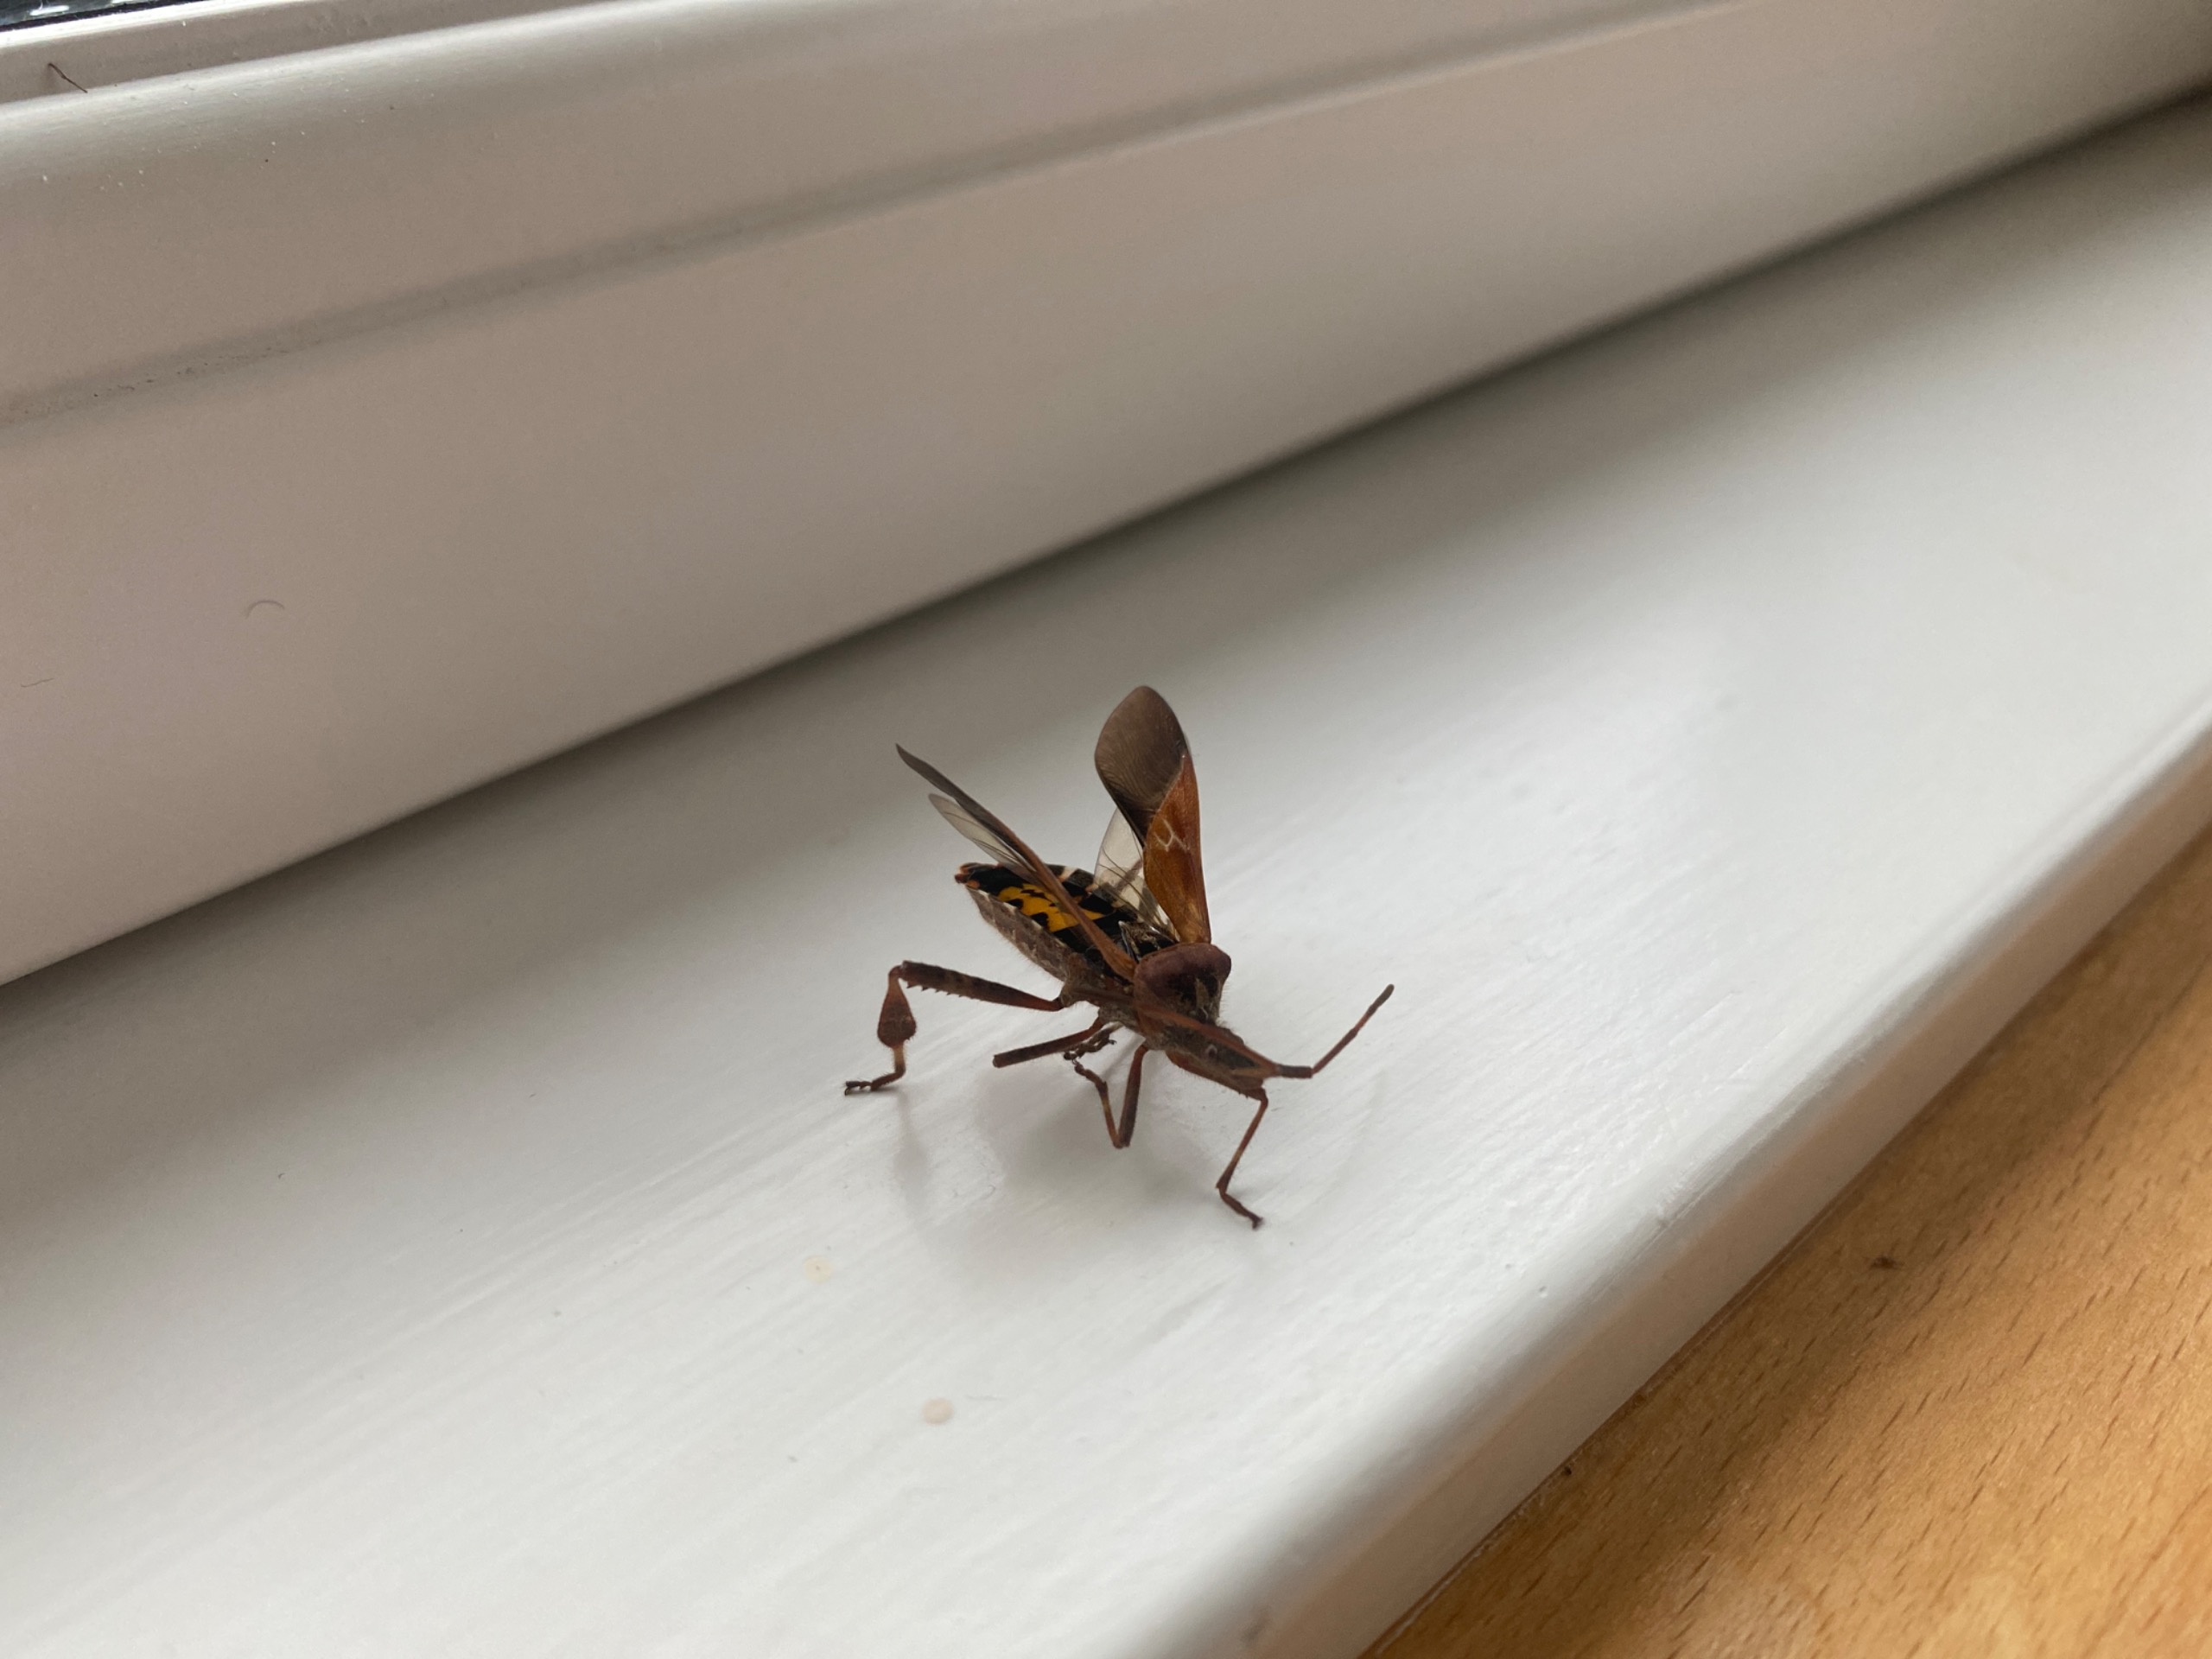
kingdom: Animalia
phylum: Arthropoda
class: Insecta
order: Hemiptera
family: Coreidae
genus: Leptoglossus
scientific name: Leptoglossus occidentalis
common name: Amerikansk fyrretæge
